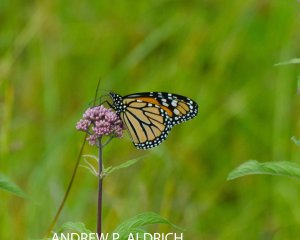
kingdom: Animalia
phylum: Arthropoda
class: Insecta
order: Lepidoptera
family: Nymphalidae
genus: Danaus
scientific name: Danaus plexippus
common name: Monarch
